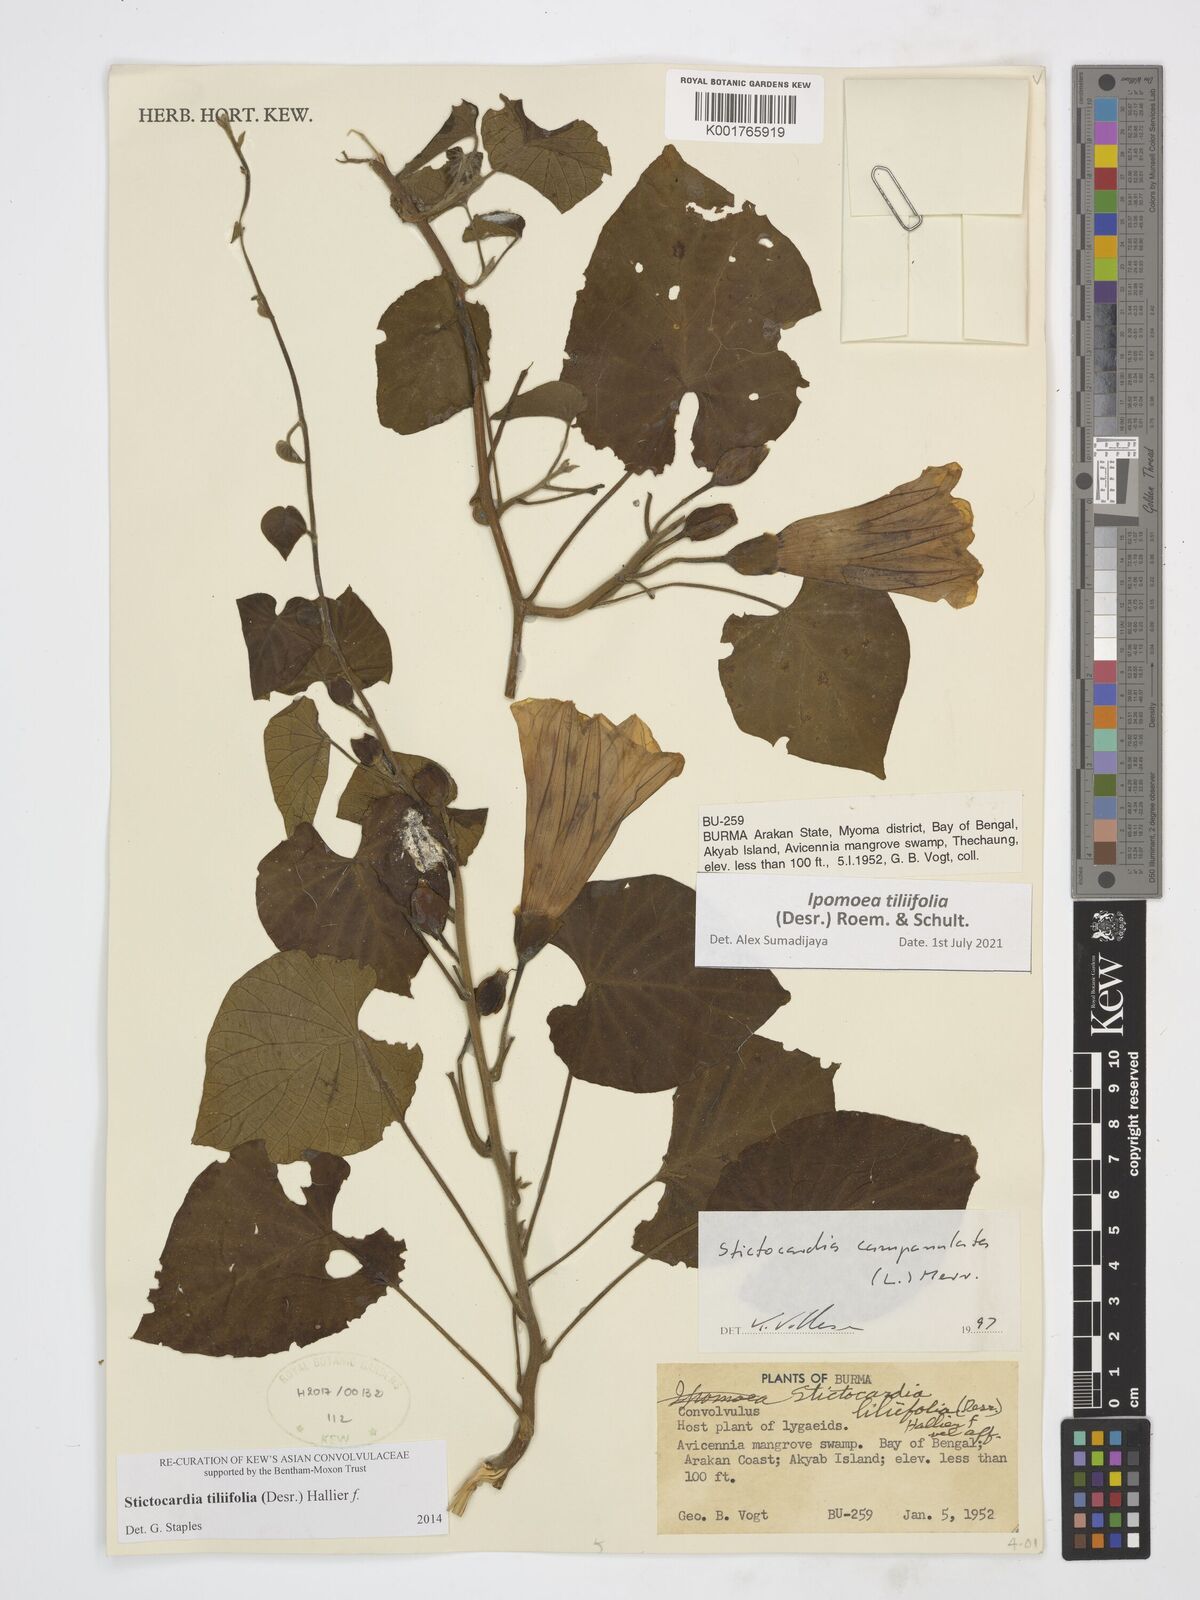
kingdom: Plantae
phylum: Tracheophyta
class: Magnoliopsida
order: Solanales
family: Convolvulaceae
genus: Stictocardia
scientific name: Stictocardia tiliifolia
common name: Spottedheart
